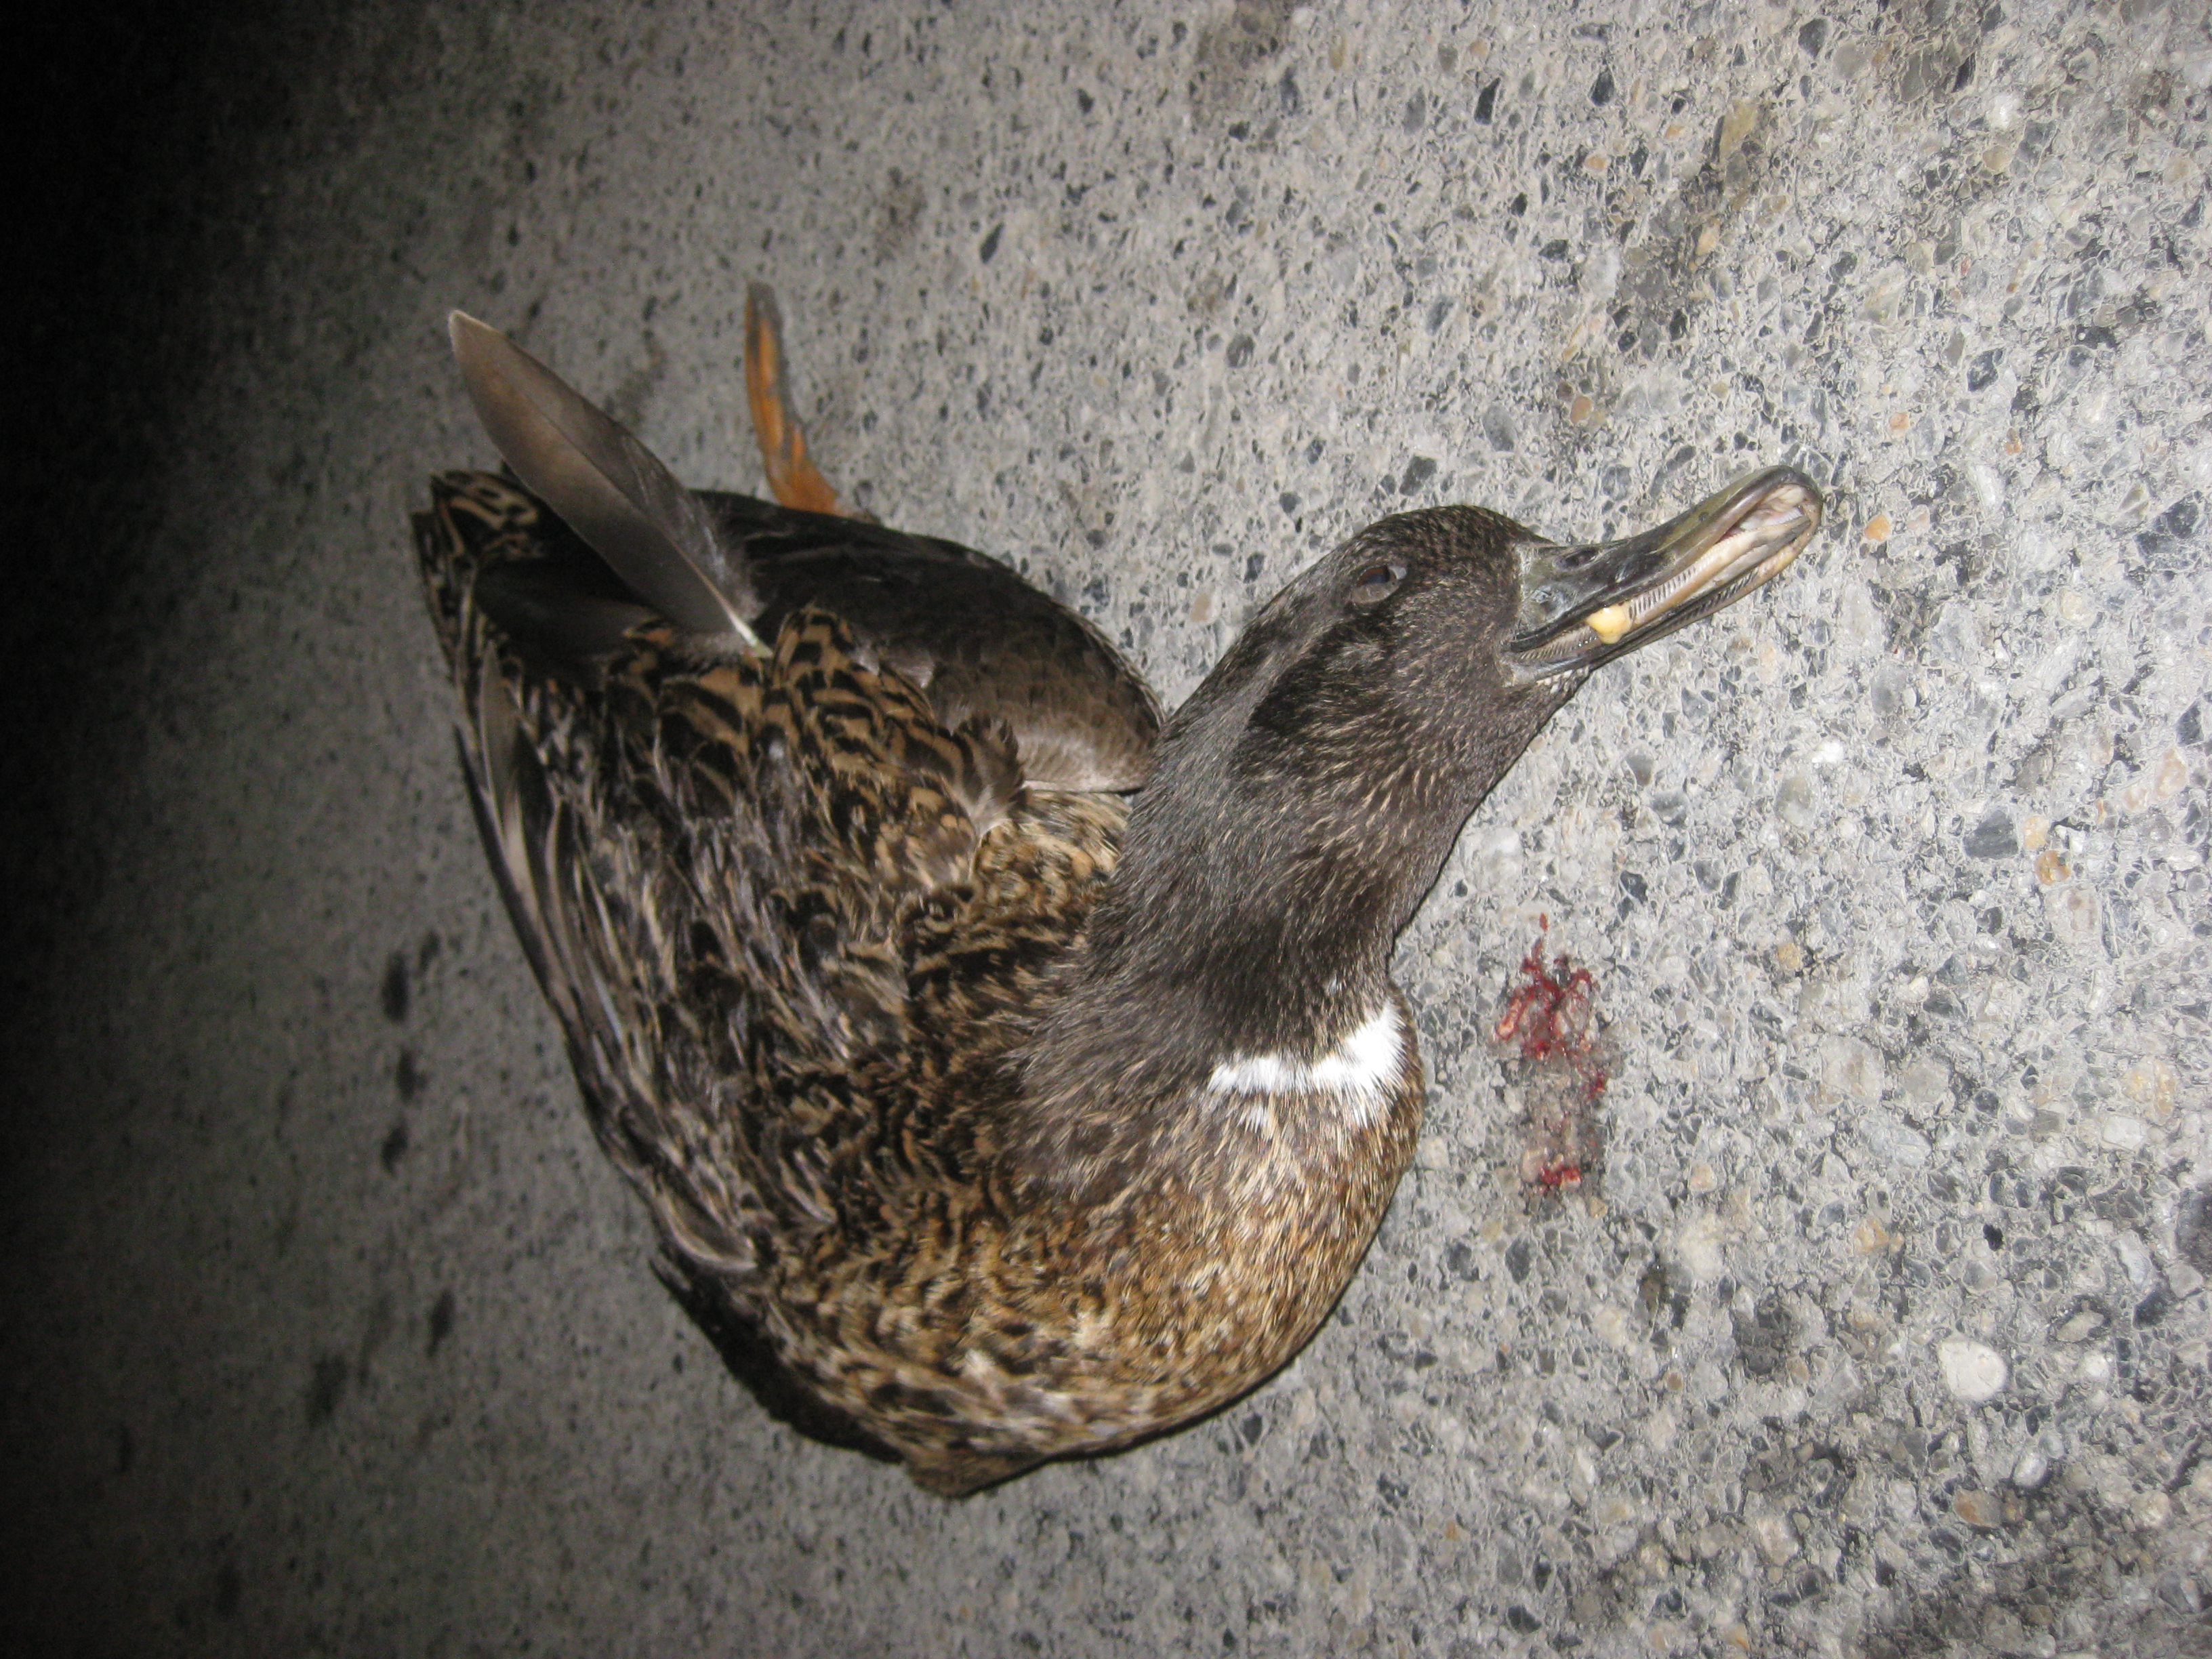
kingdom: Animalia
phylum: Chordata
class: Aves
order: Anseriformes
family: Anatidae
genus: Anas
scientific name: Anas platyrhynchos
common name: Mallard
